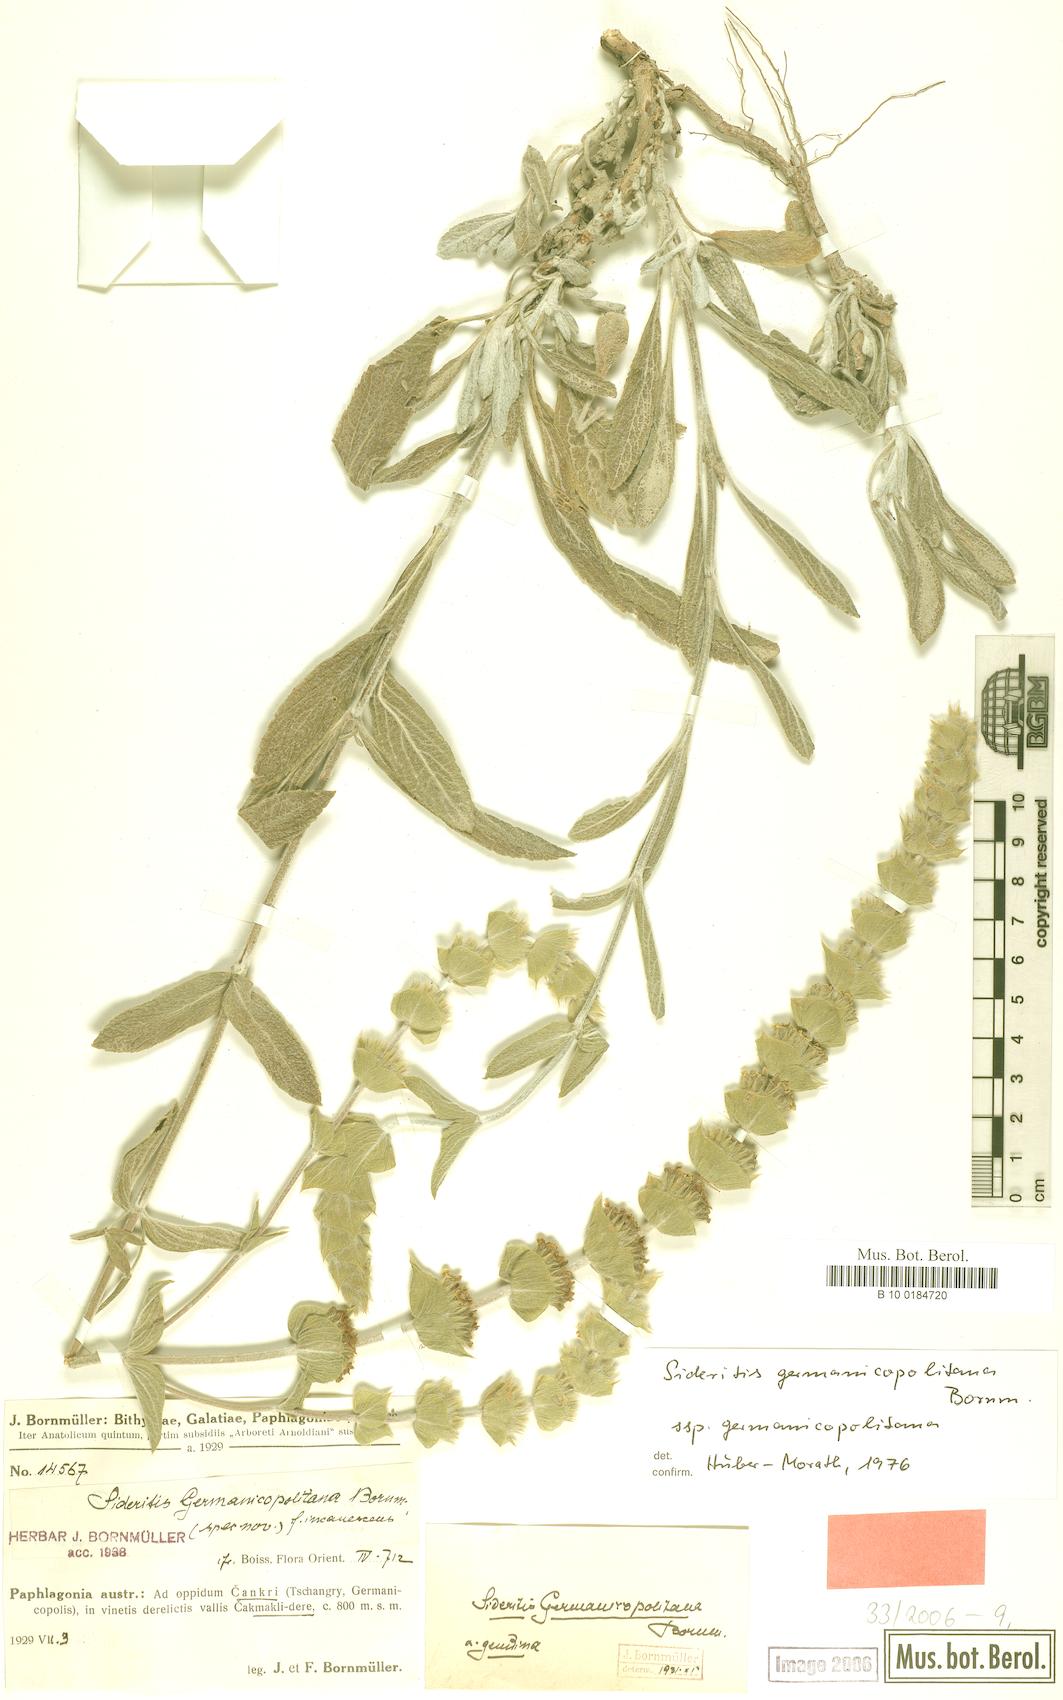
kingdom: Plantae
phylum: Tracheophyta
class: Magnoliopsida
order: Lamiales
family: Lamiaceae
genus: Sideritis
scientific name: Sideritis germanicopolitana
